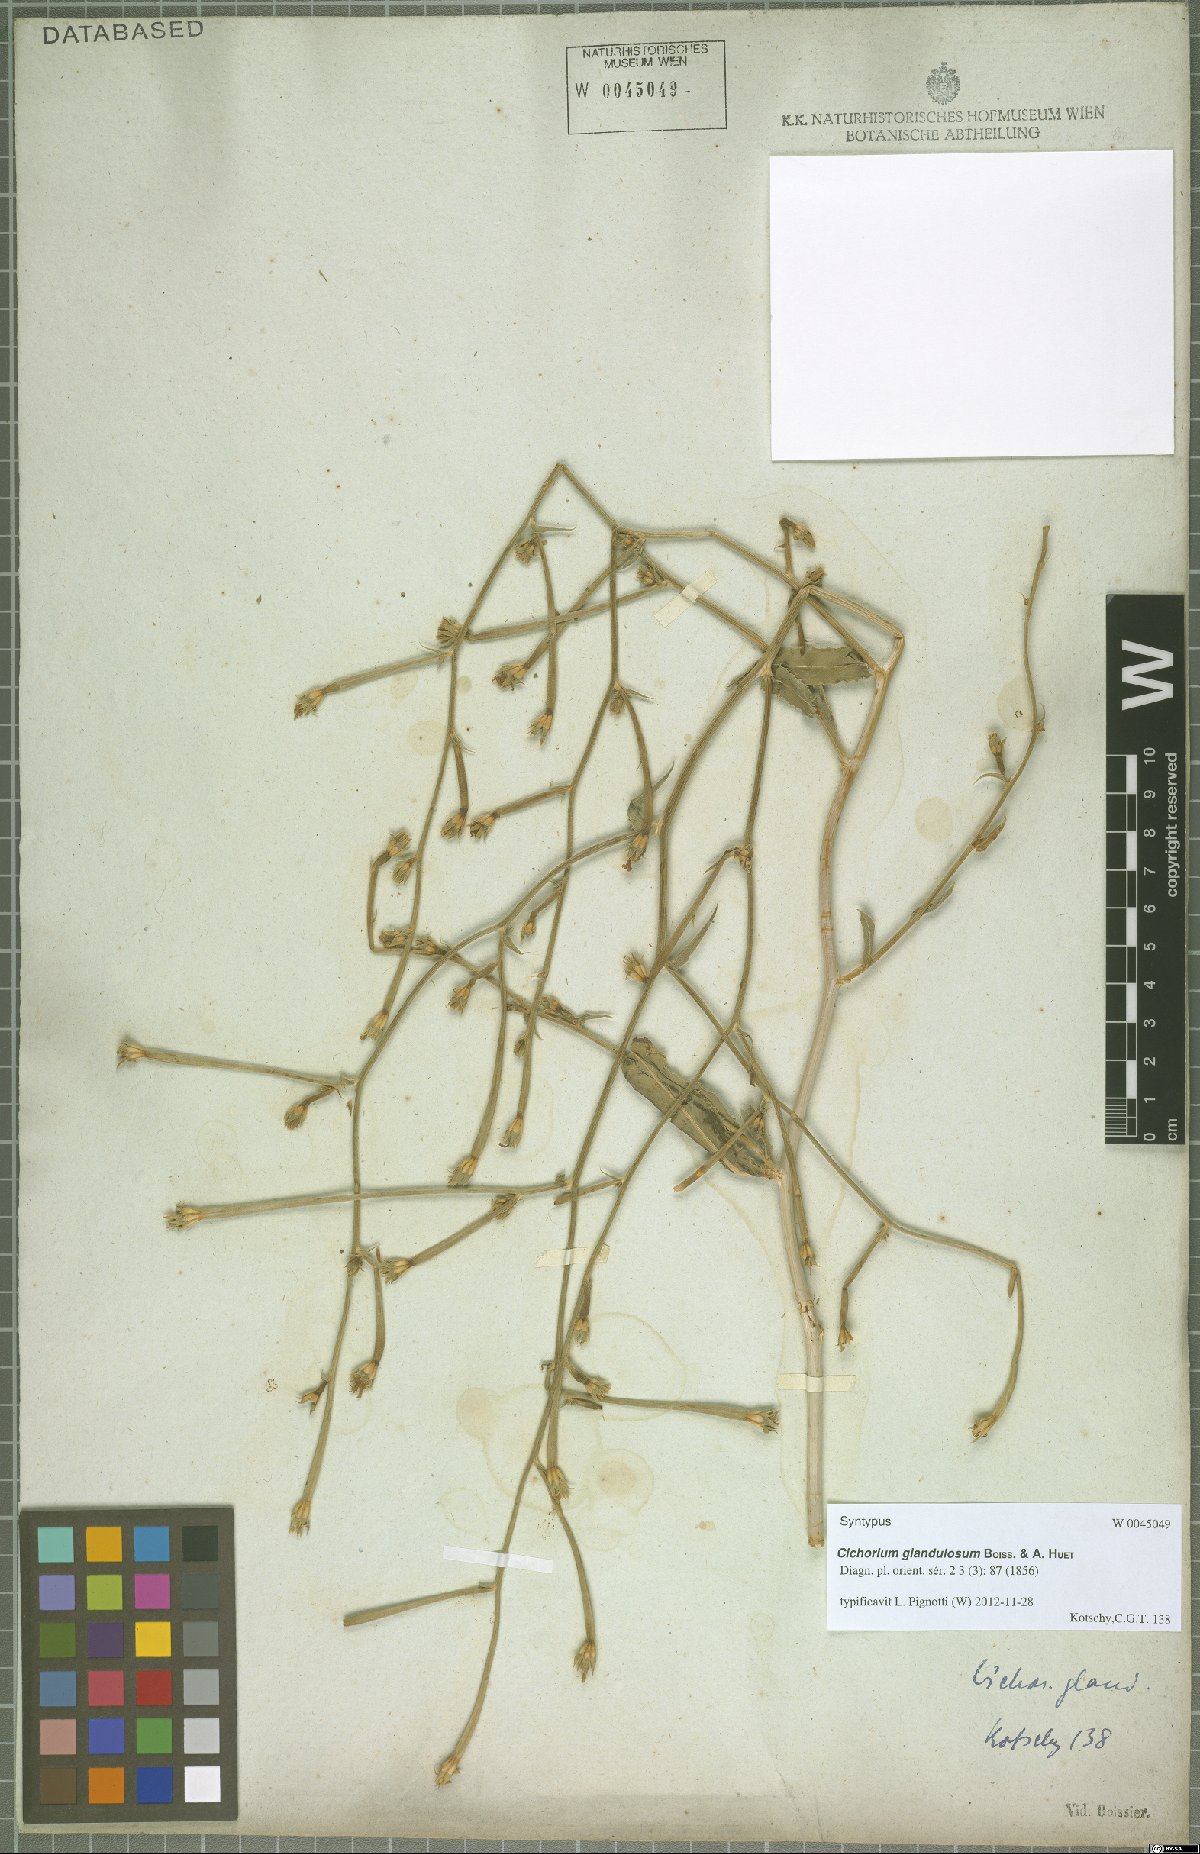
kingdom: Plantae
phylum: Tracheophyta
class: Magnoliopsida
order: Asterales
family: Asteraceae
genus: Cichorium
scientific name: Cichorium glandulosum
